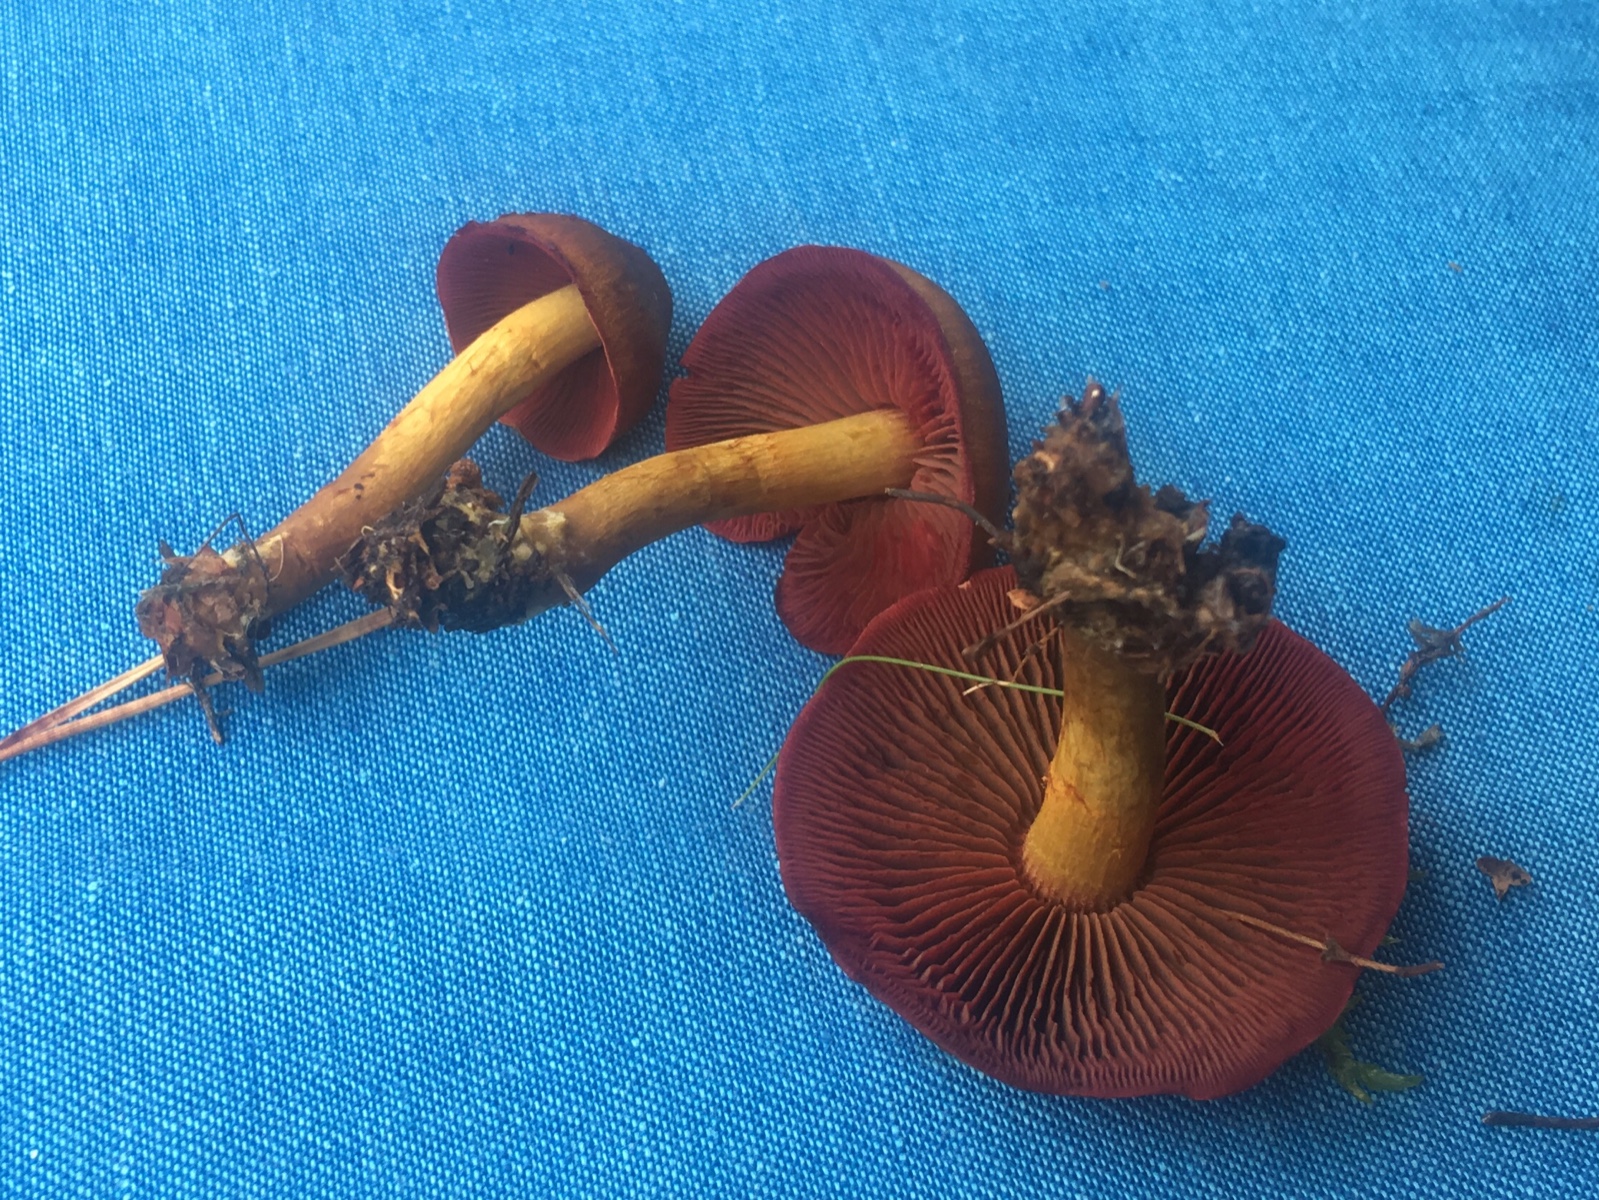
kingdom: Fungi
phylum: Basidiomycota
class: Agaricomycetes
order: Agaricales
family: Cortinariaceae
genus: Cortinarius
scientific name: Cortinarius
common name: cinnoberbladet slørhat
